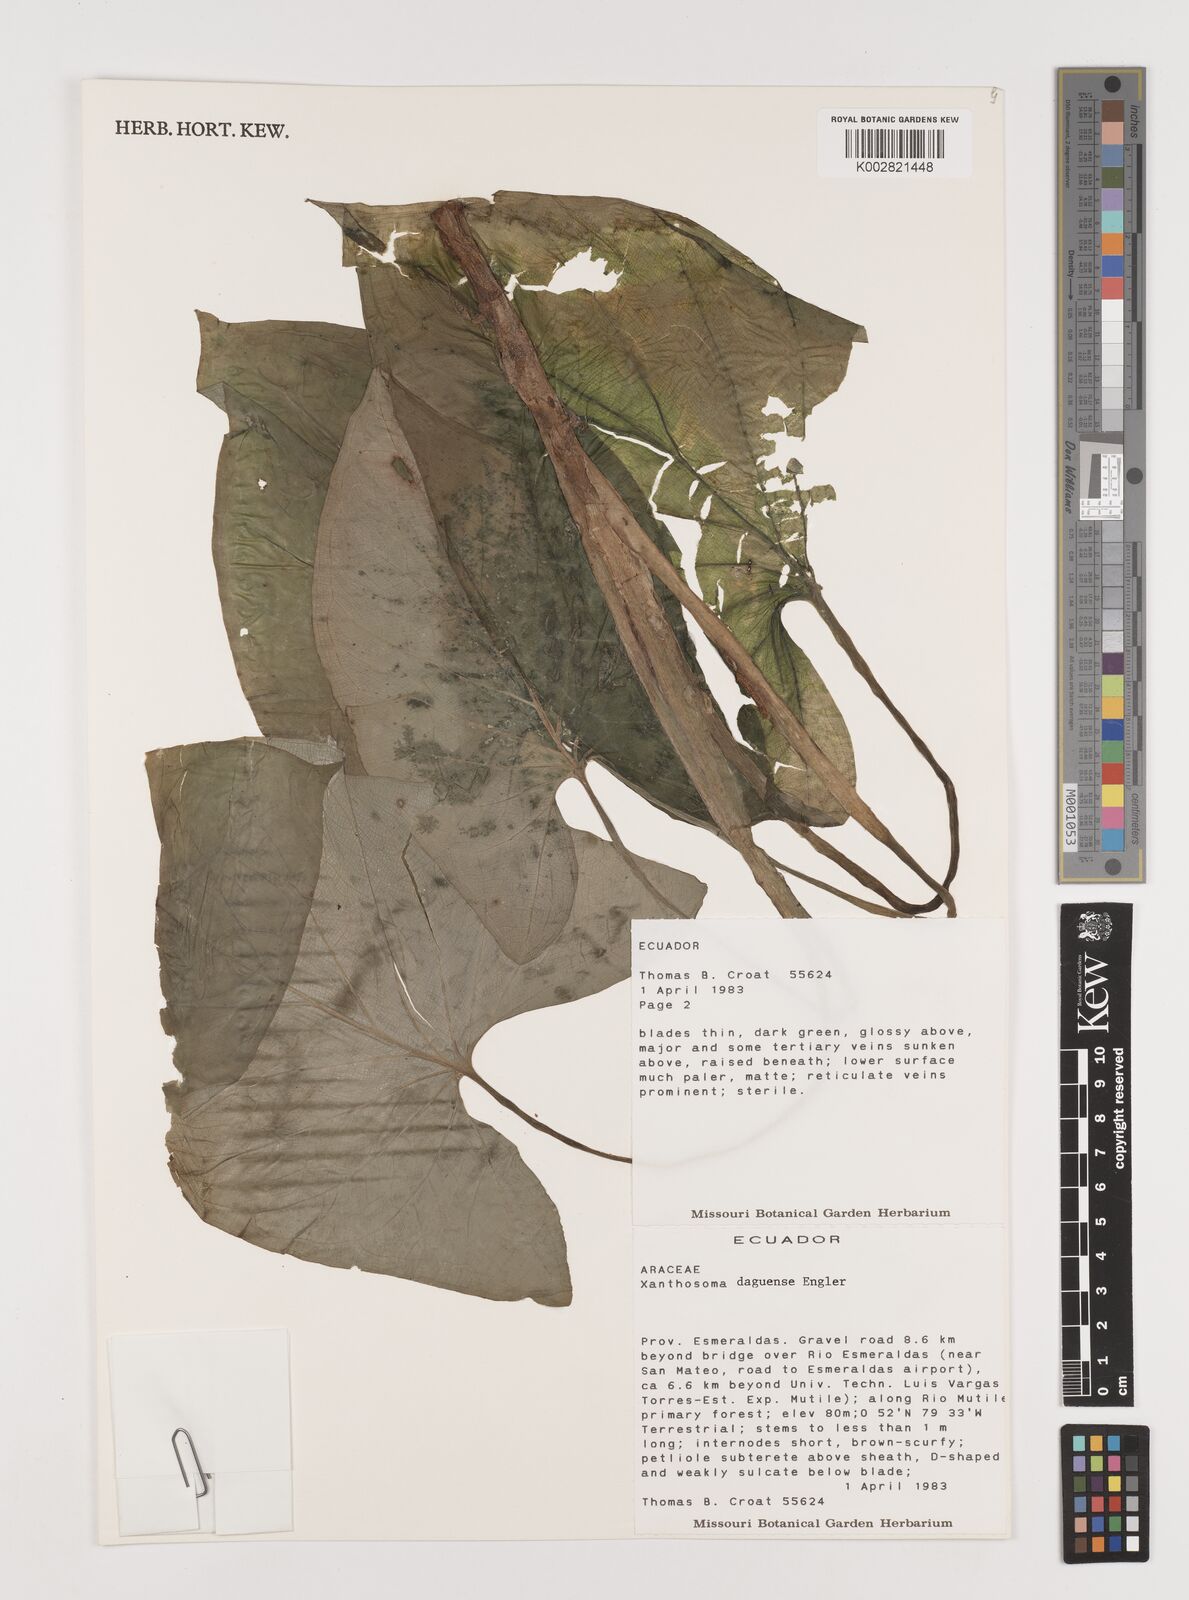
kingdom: Plantae
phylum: Tracheophyta
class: Liliopsida
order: Alismatales
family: Araceae
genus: Xanthosoma
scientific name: Xanthosoma daguense
